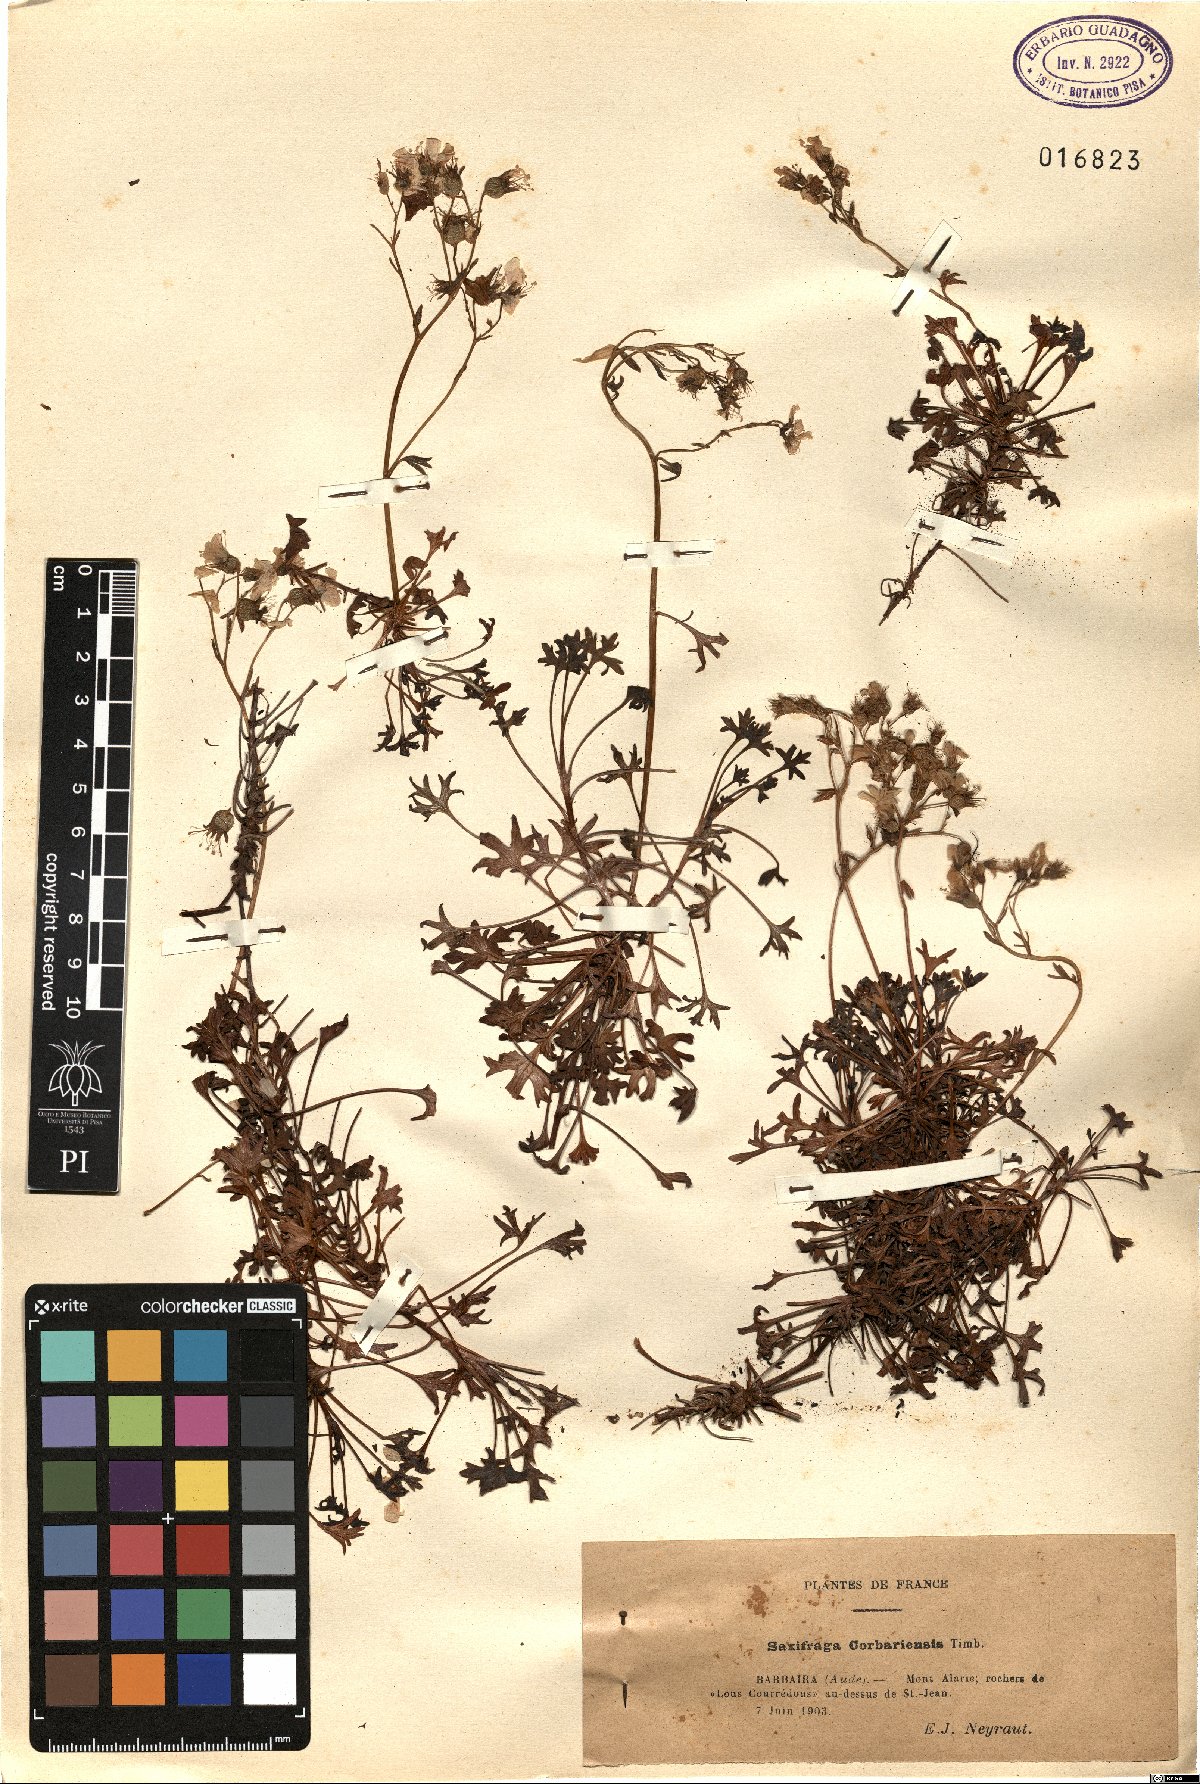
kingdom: Plantae
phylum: Tracheophyta
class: Magnoliopsida
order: Saxifragales
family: Saxifragaceae
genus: Saxifraga
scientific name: Saxifraga cuneata
